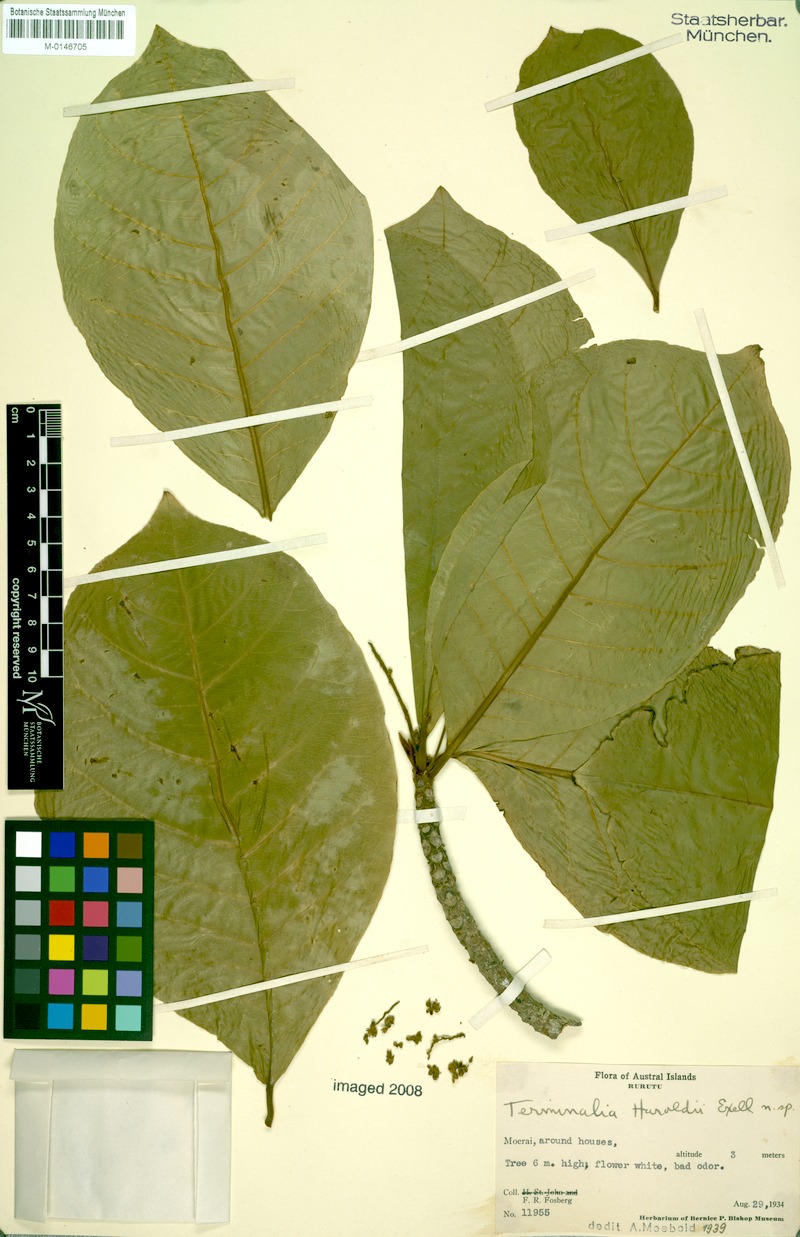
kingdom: Plantae
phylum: Tracheophyta
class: Magnoliopsida
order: Myrtales
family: Combretaceae
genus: Terminalia
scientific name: Terminalia glabrata
